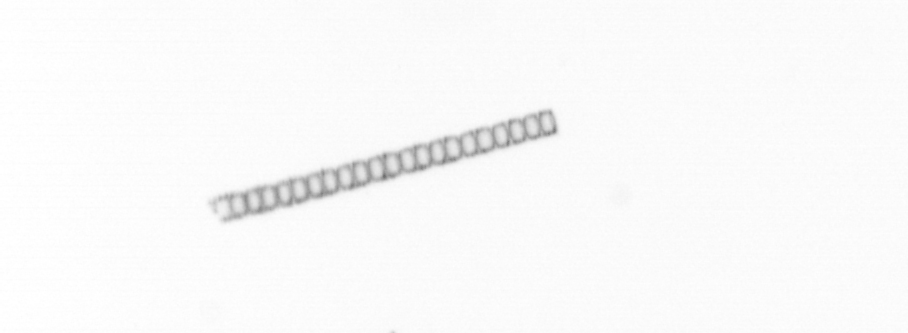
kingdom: Chromista
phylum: Ochrophyta
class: Bacillariophyceae
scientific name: Bacillariophyceae
